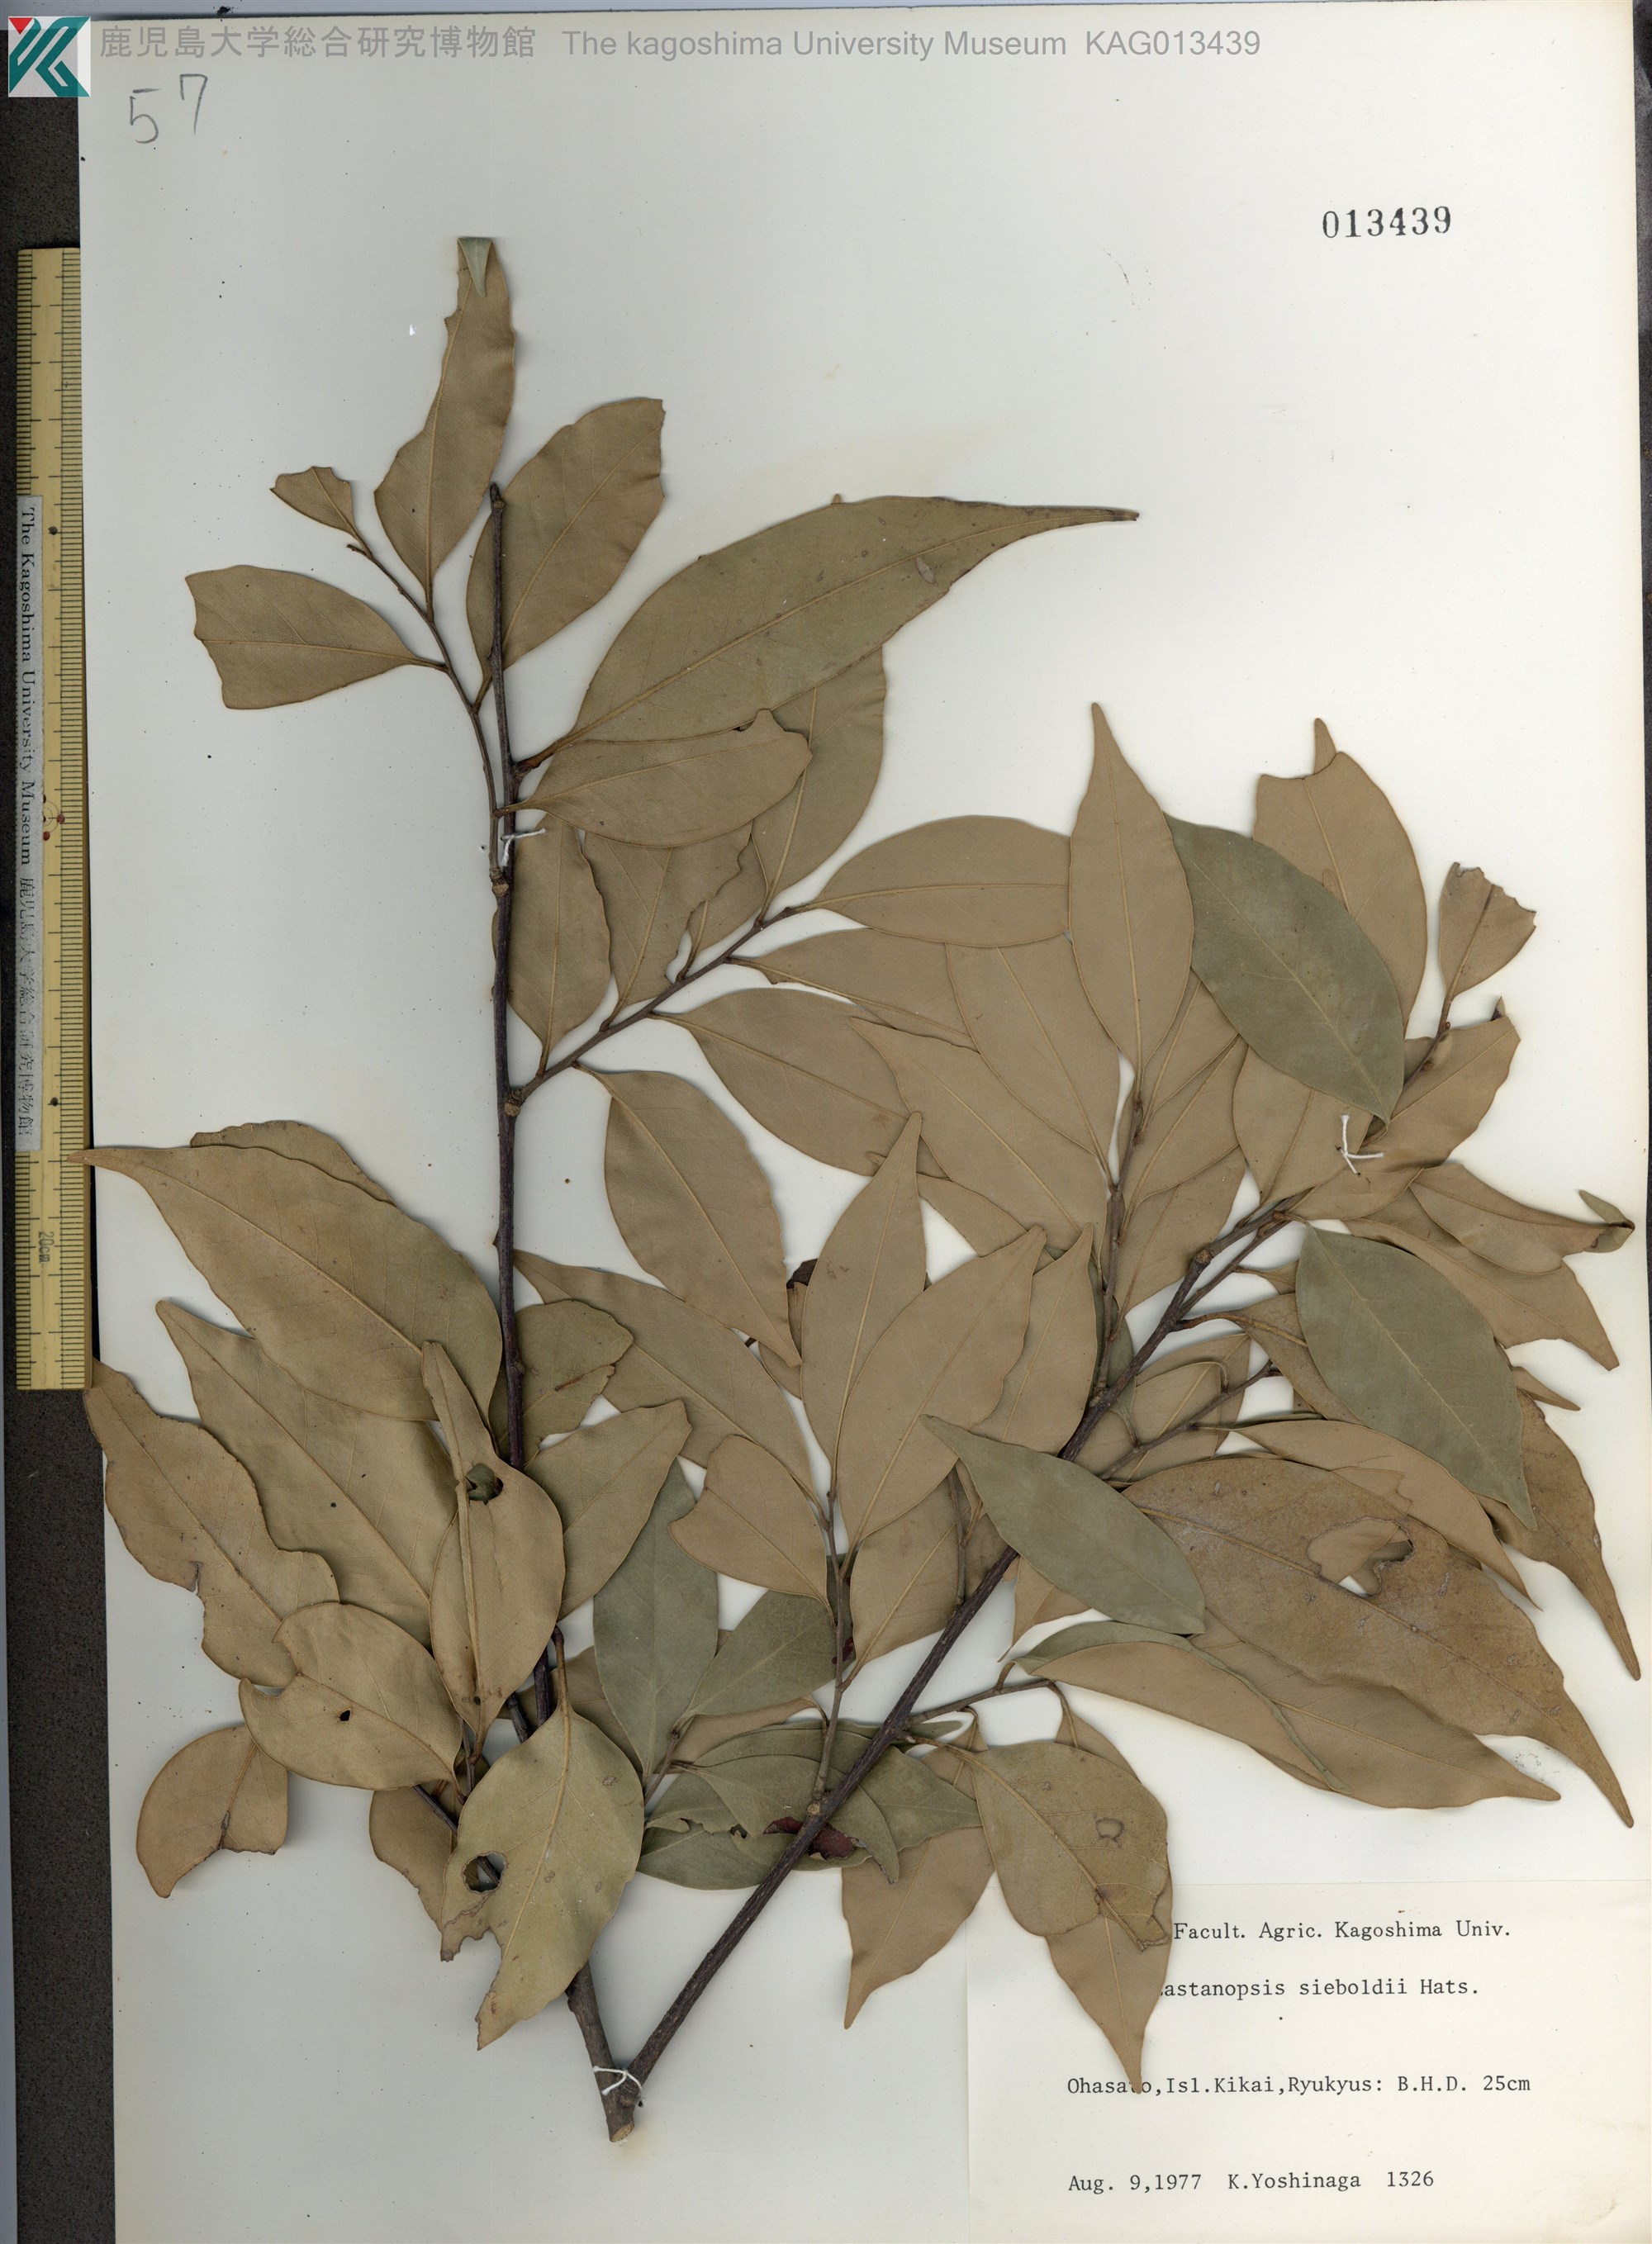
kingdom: Plantae
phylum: Tracheophyta
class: Magnoliopsida
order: Fagales
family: Fagaceae
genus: Castanopsis
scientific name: Castanopsis sieboldii
